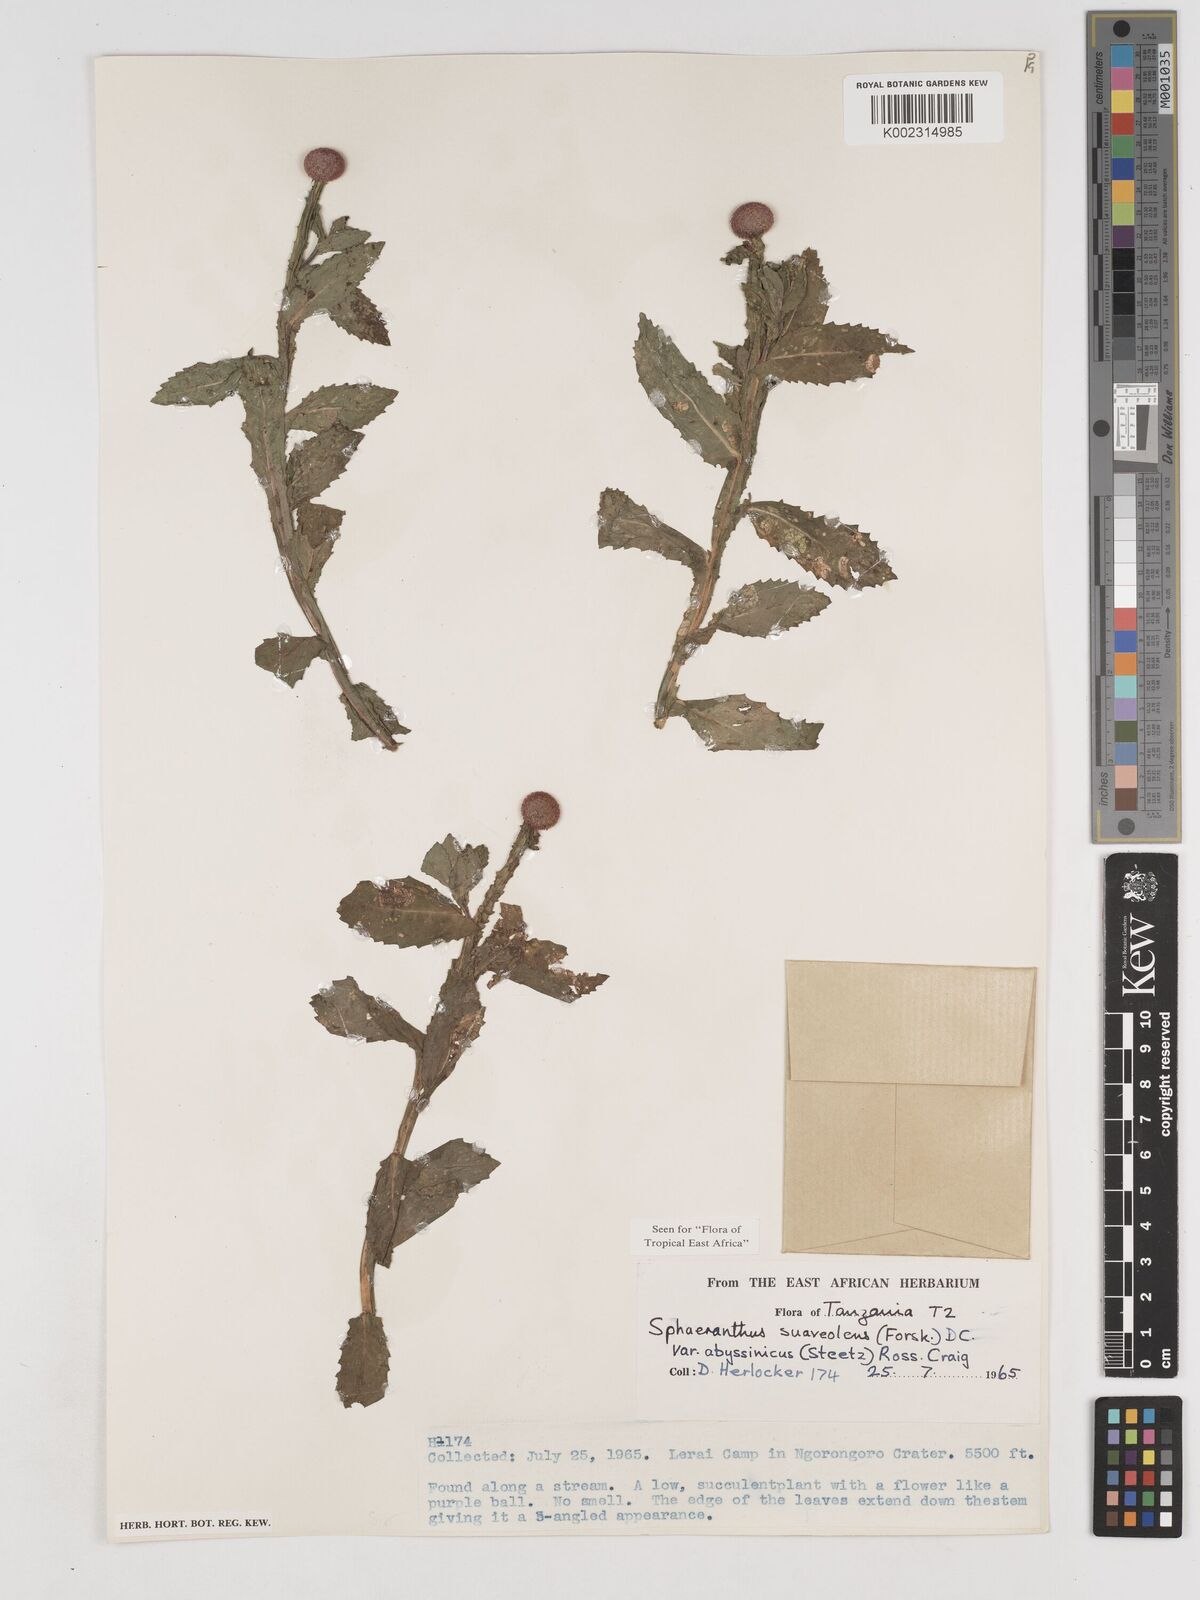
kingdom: Plantae
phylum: Tracheophyta
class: Magnoliopsida
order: Asterales
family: Asteraceae
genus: Sphaeranthus
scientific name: Sphaeranthus suaveolens
